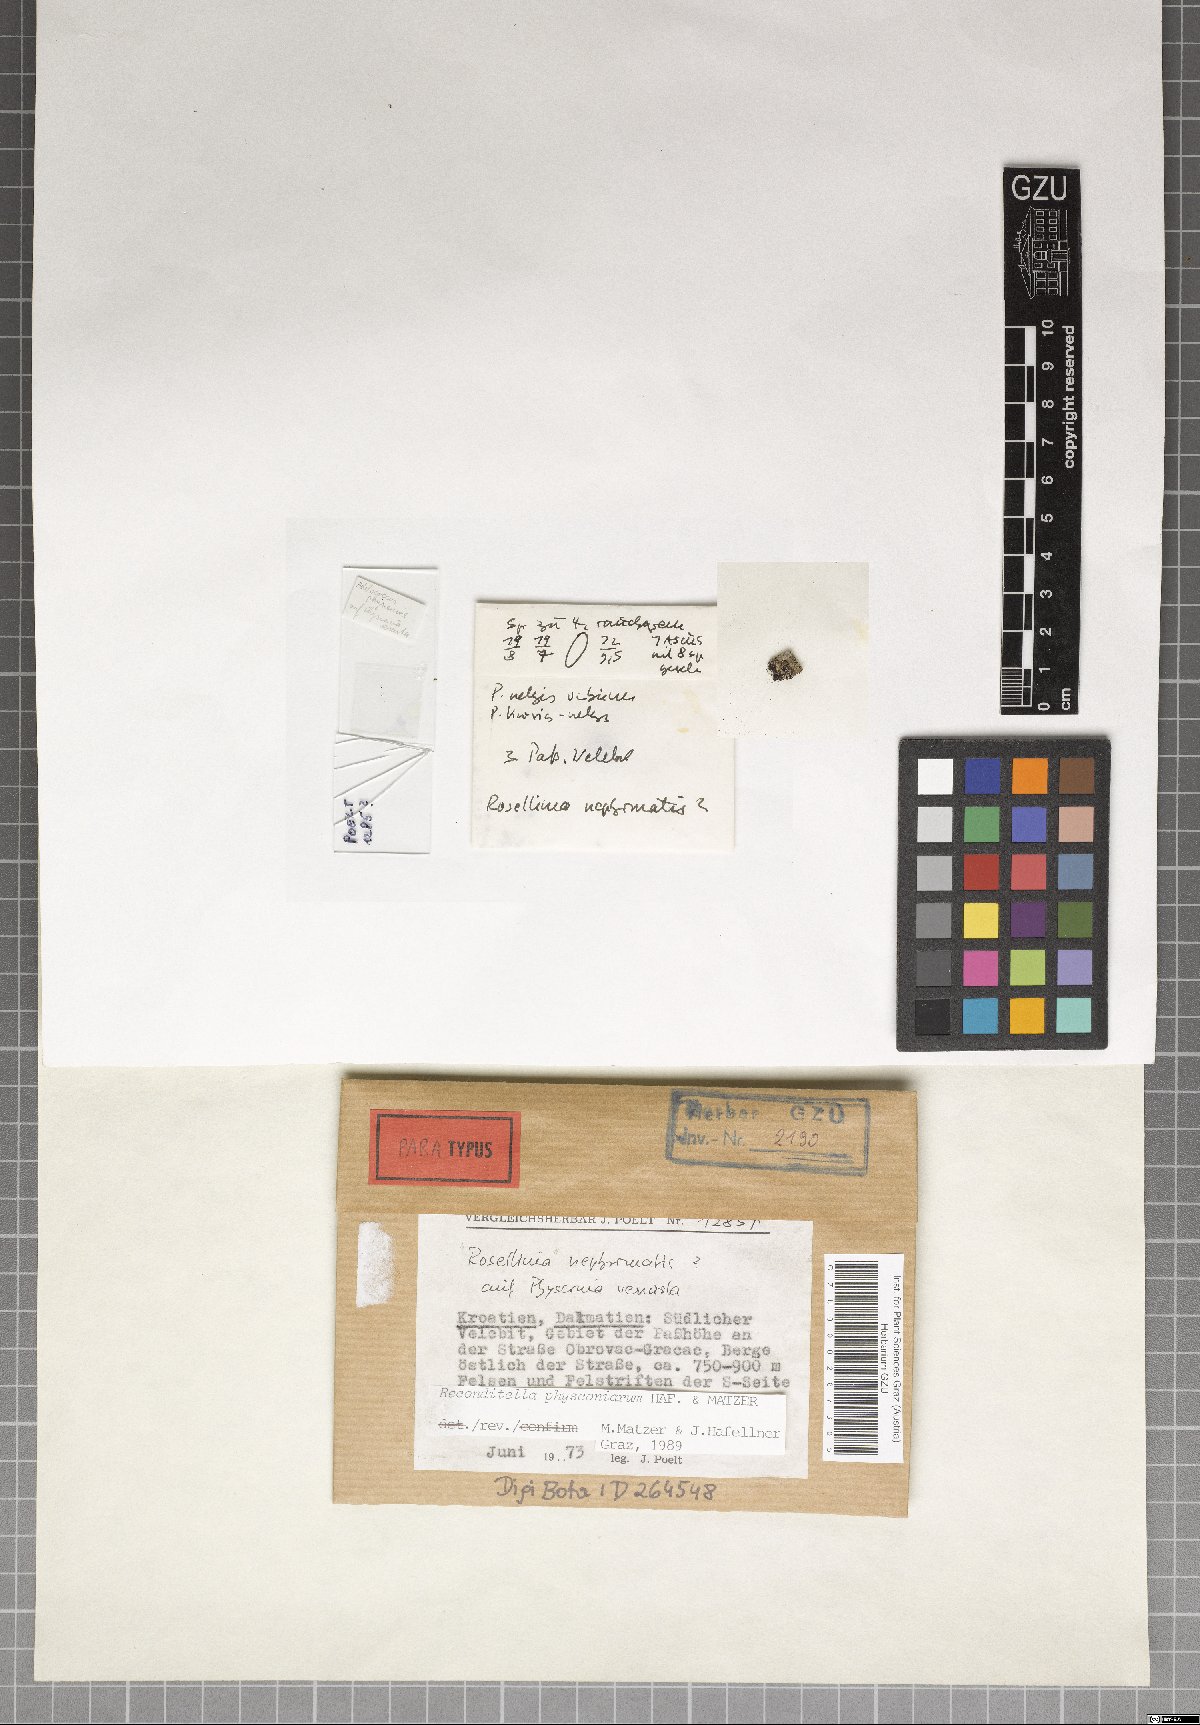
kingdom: Fungi
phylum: Ascomycota
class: Sordariomycetes
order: Sordariales
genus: Reconditella
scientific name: Reconditella physconiarum
